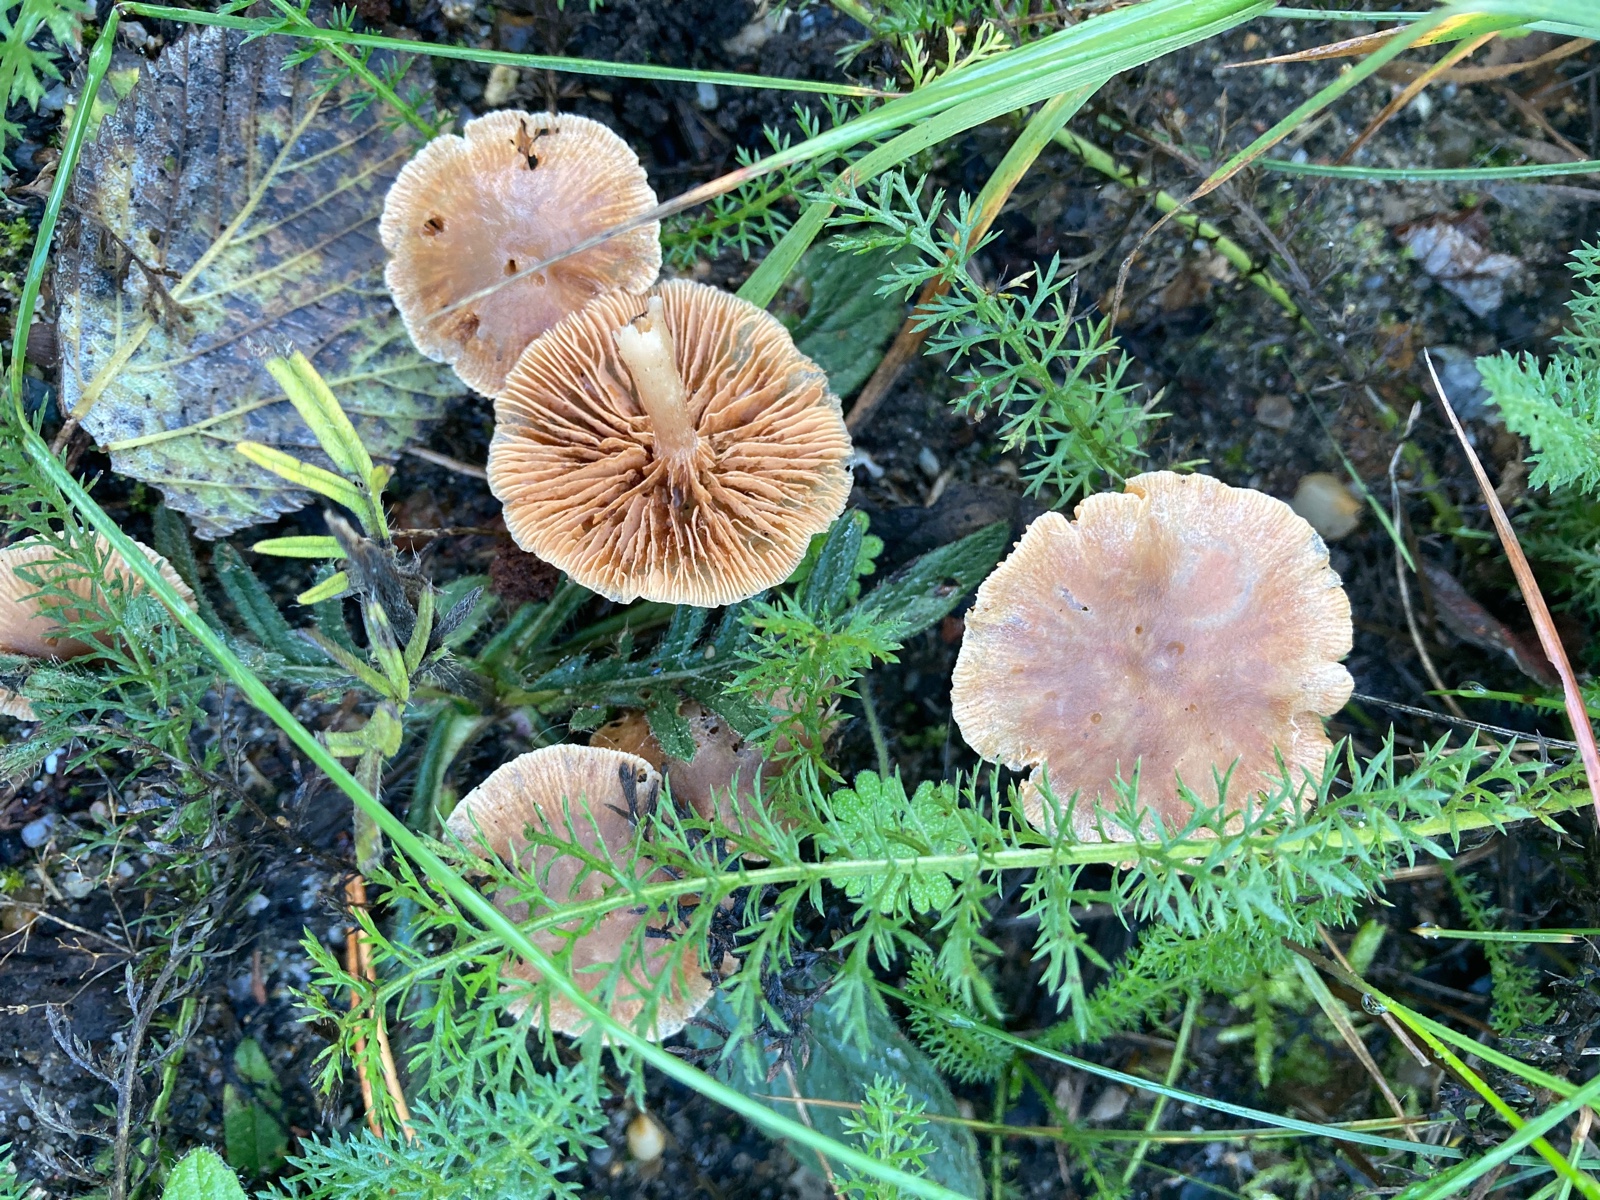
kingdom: Fungi
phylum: Basidiomycota
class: Agaricomycetes
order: Agaricales
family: Tubariaceae
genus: Tubaria
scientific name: Tubaria furfuracea
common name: kliddet fnughat
